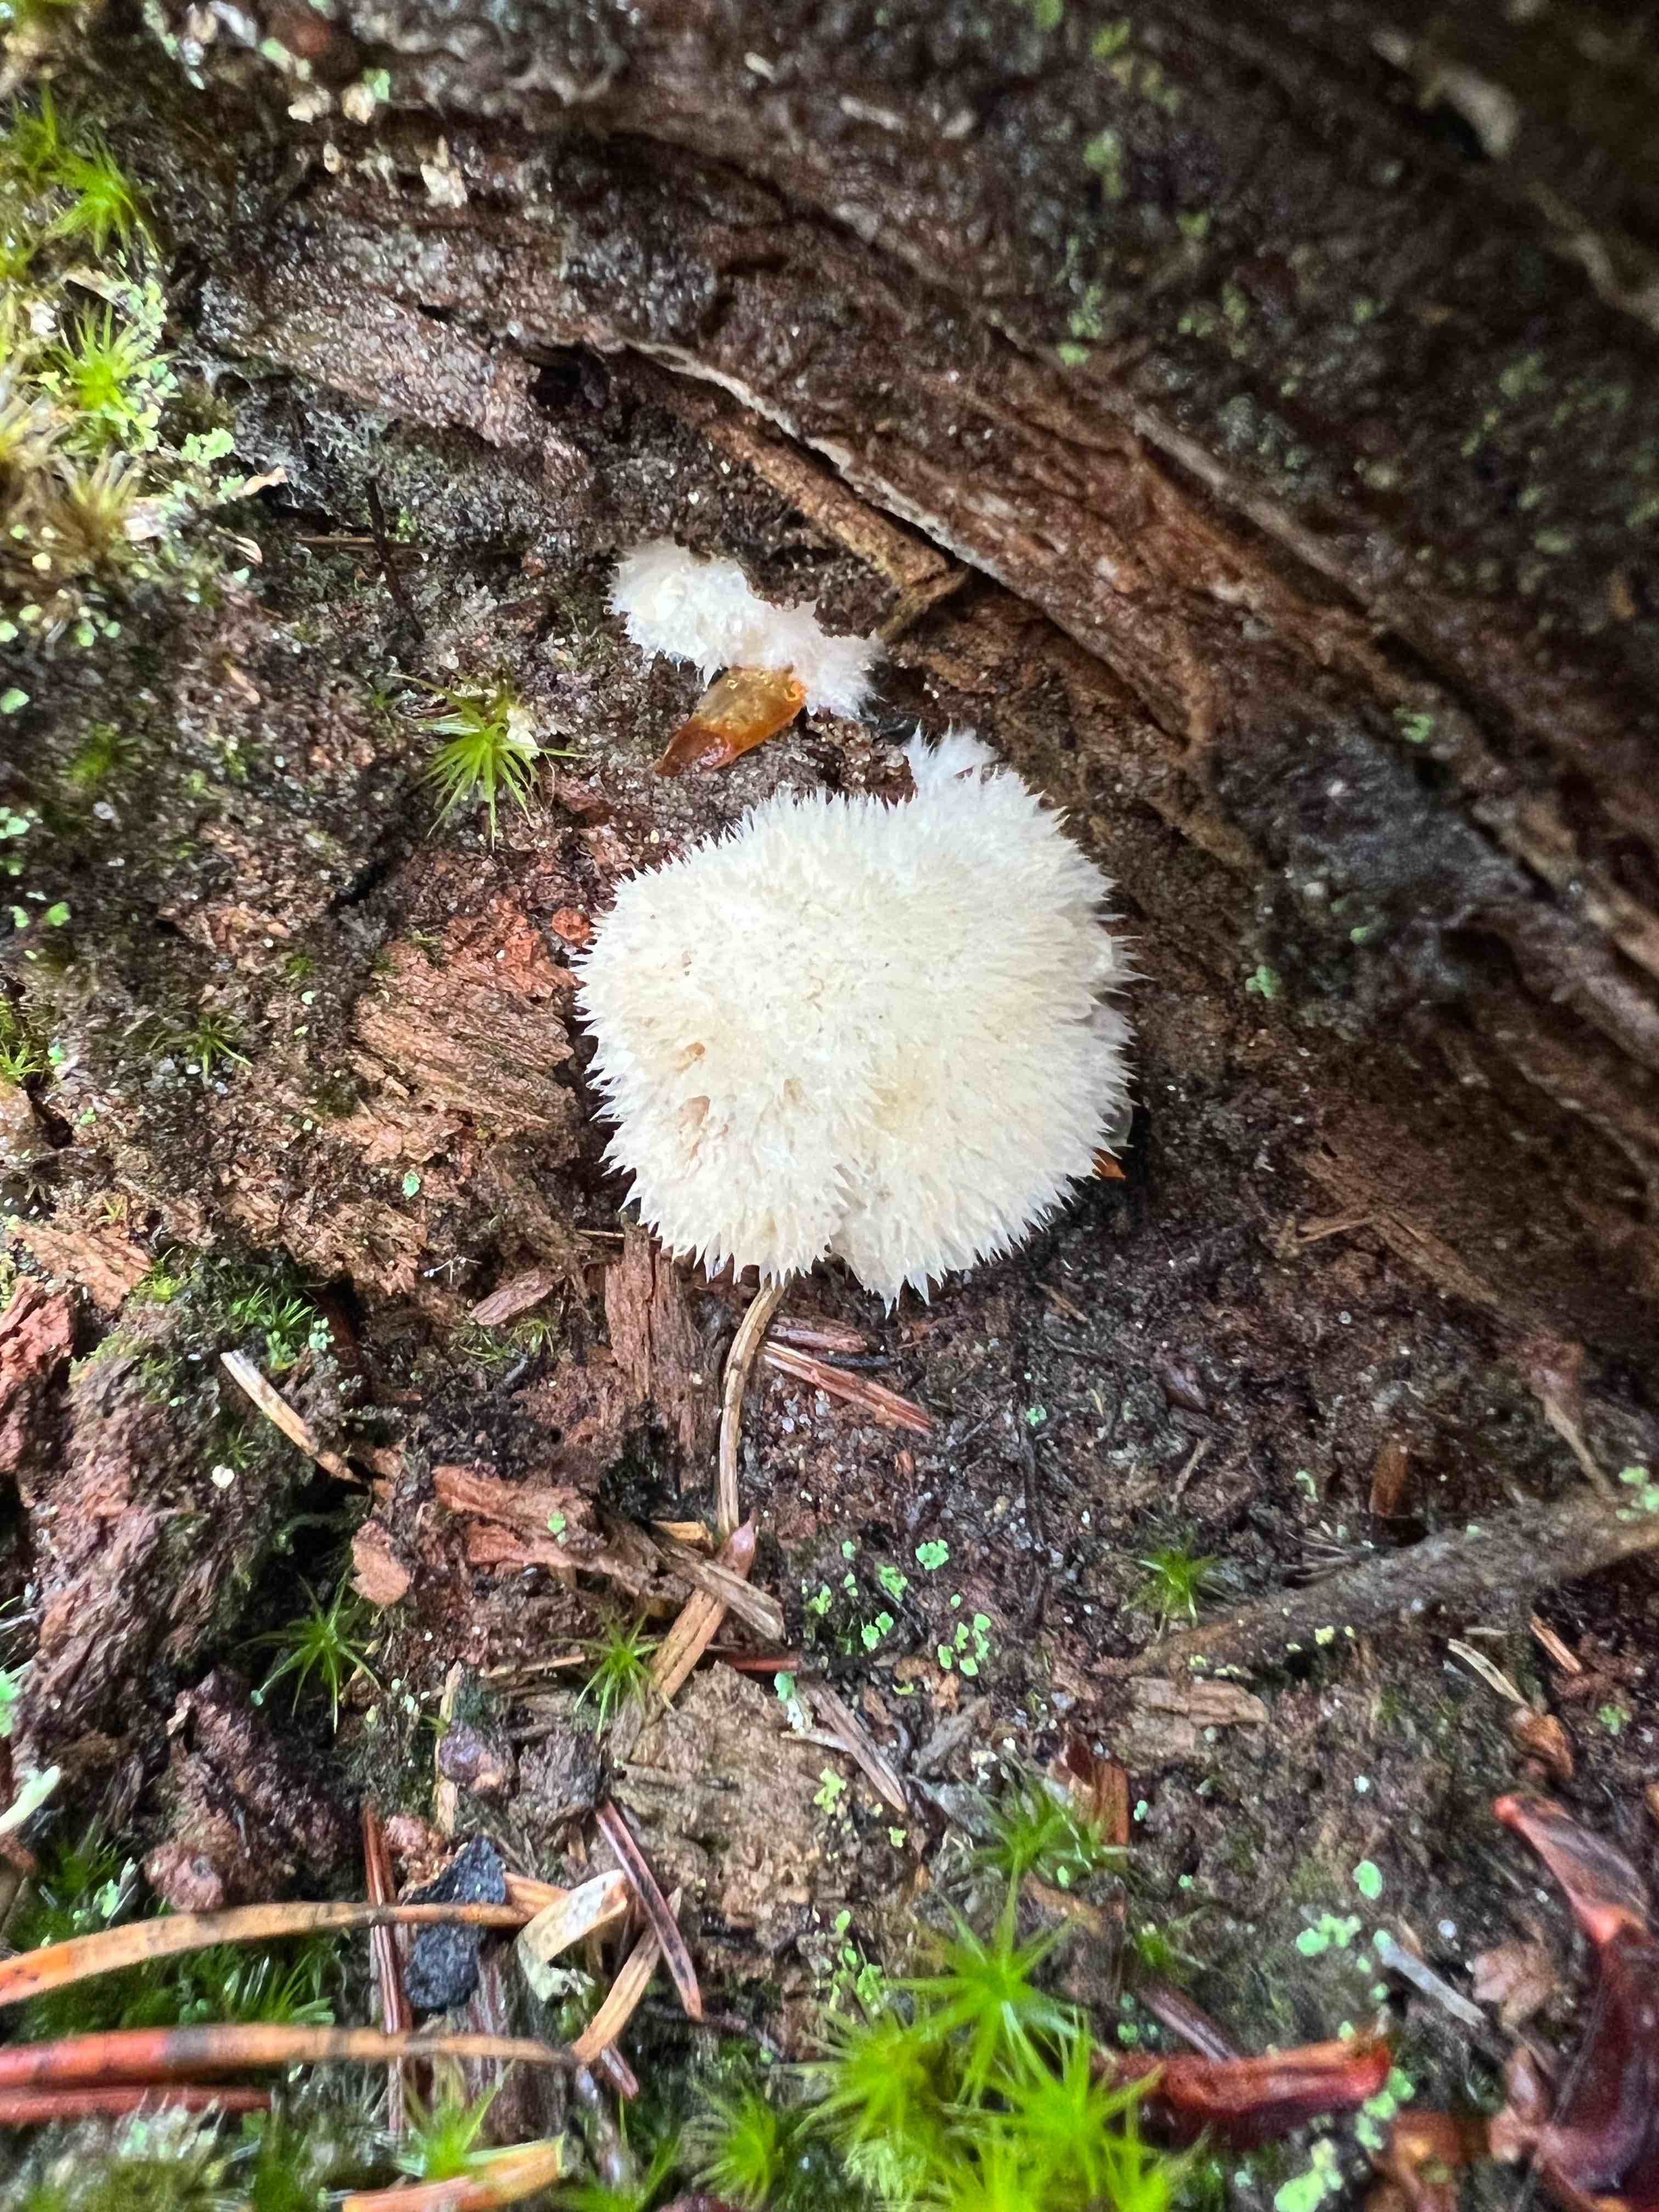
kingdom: Fungi
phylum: Basidiomycota
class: Agaricomycetes
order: Polyporales
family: Dacryobolaceae
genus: Postia
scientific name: Postia ptychogaster
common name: støvende kødporesvamp
